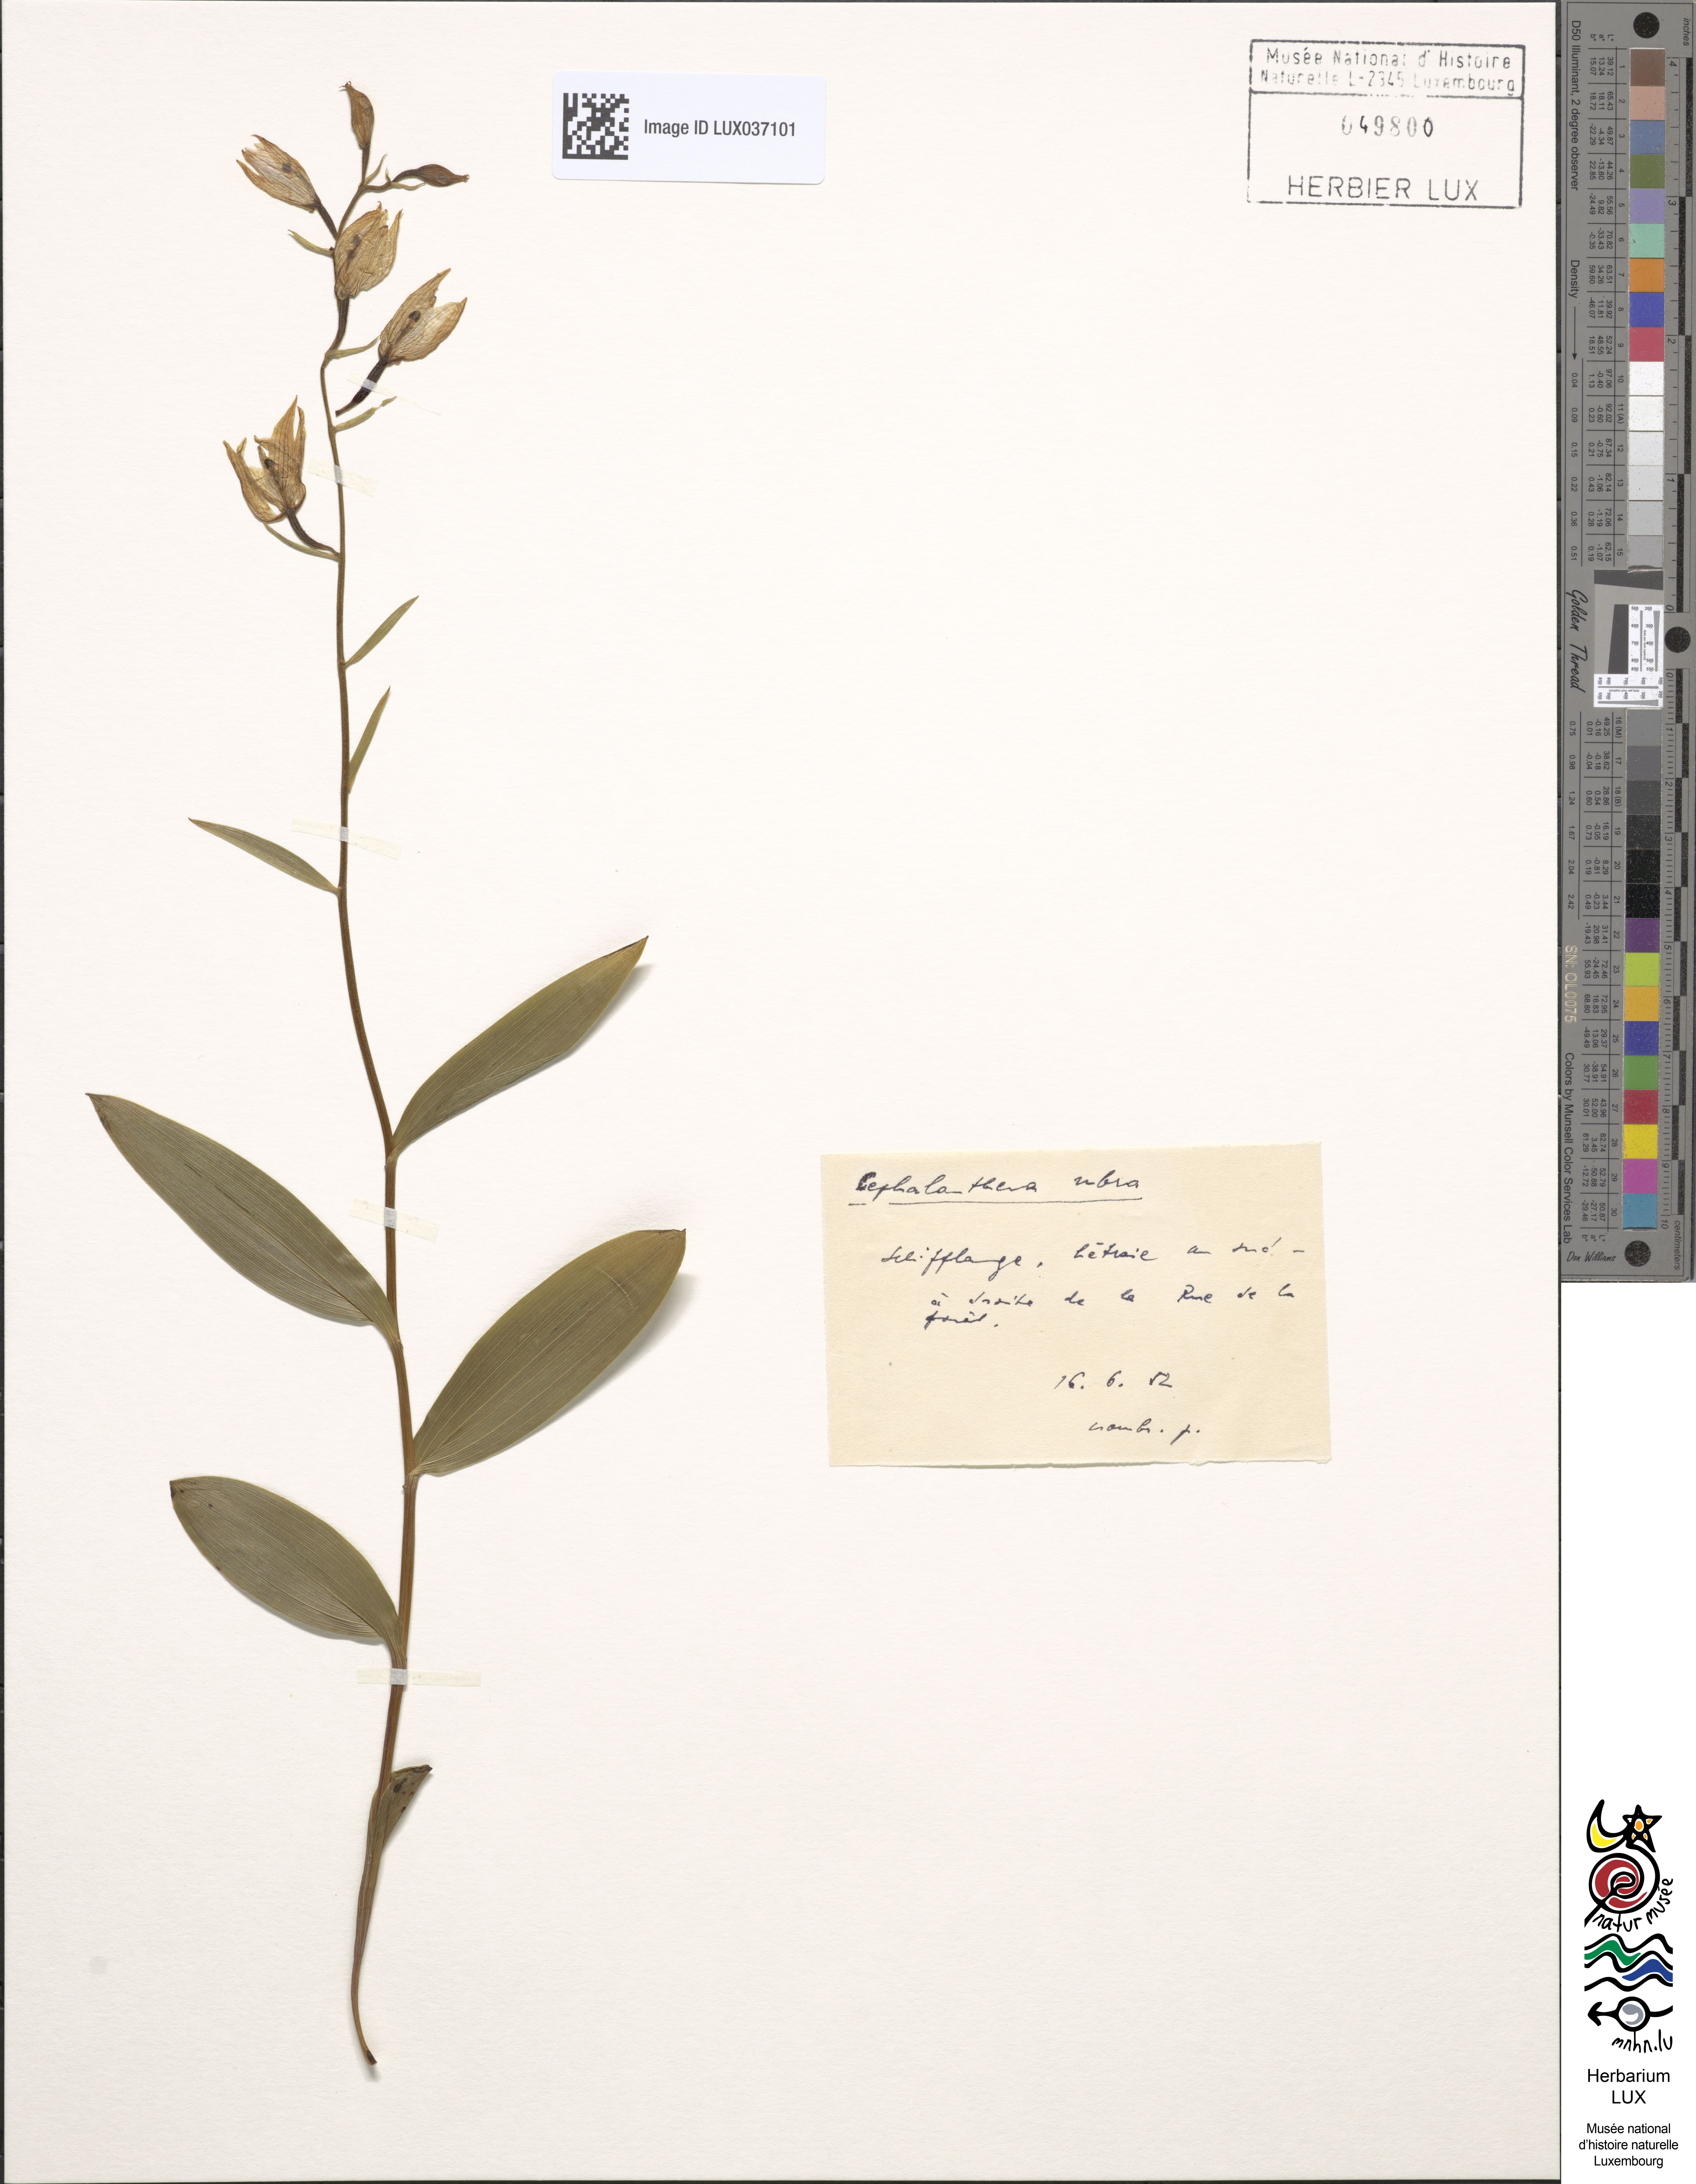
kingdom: Plantae
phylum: Tracheophyta
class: Liliopsida
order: Asparagales
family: Orchidaceae
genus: Cephalanthera
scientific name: Cephalanthera rubra
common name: Red helleborine
